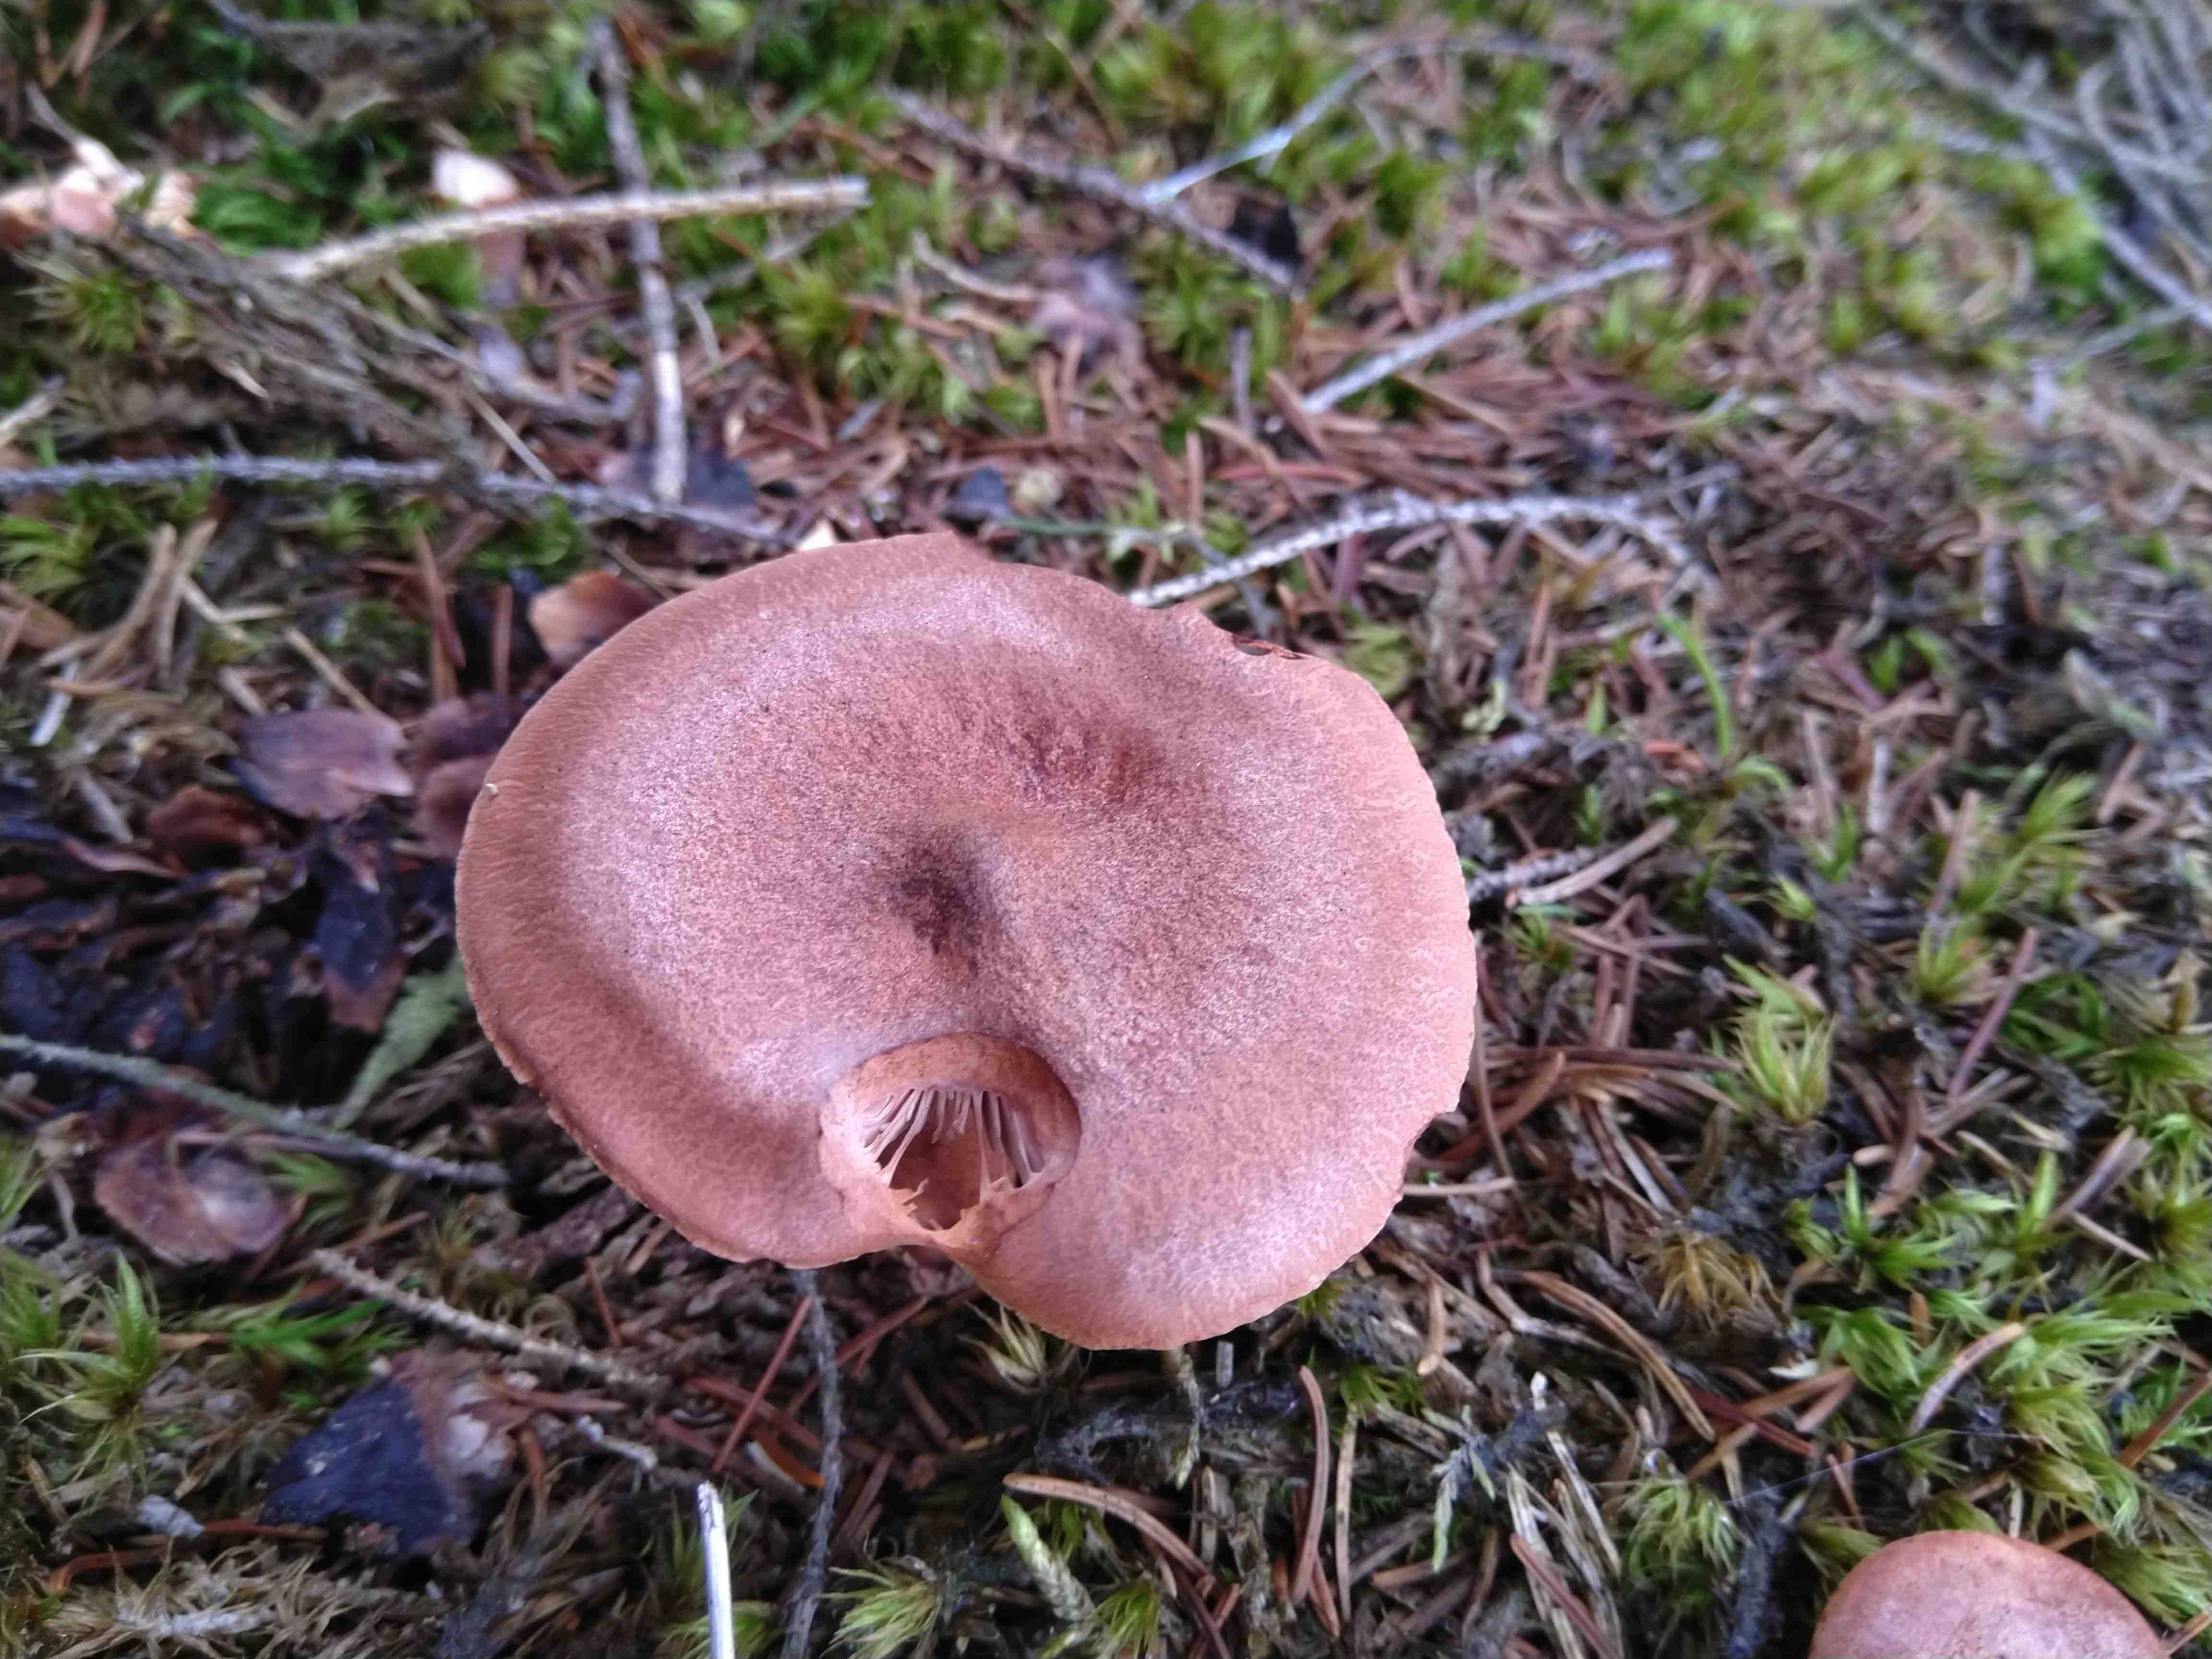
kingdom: Fungi
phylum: Basidiomycota
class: Agaricomycetes
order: Russulales
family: Russulaceae
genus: Lactarius
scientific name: Lactarius rufus
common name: rødbrun mælkehat
